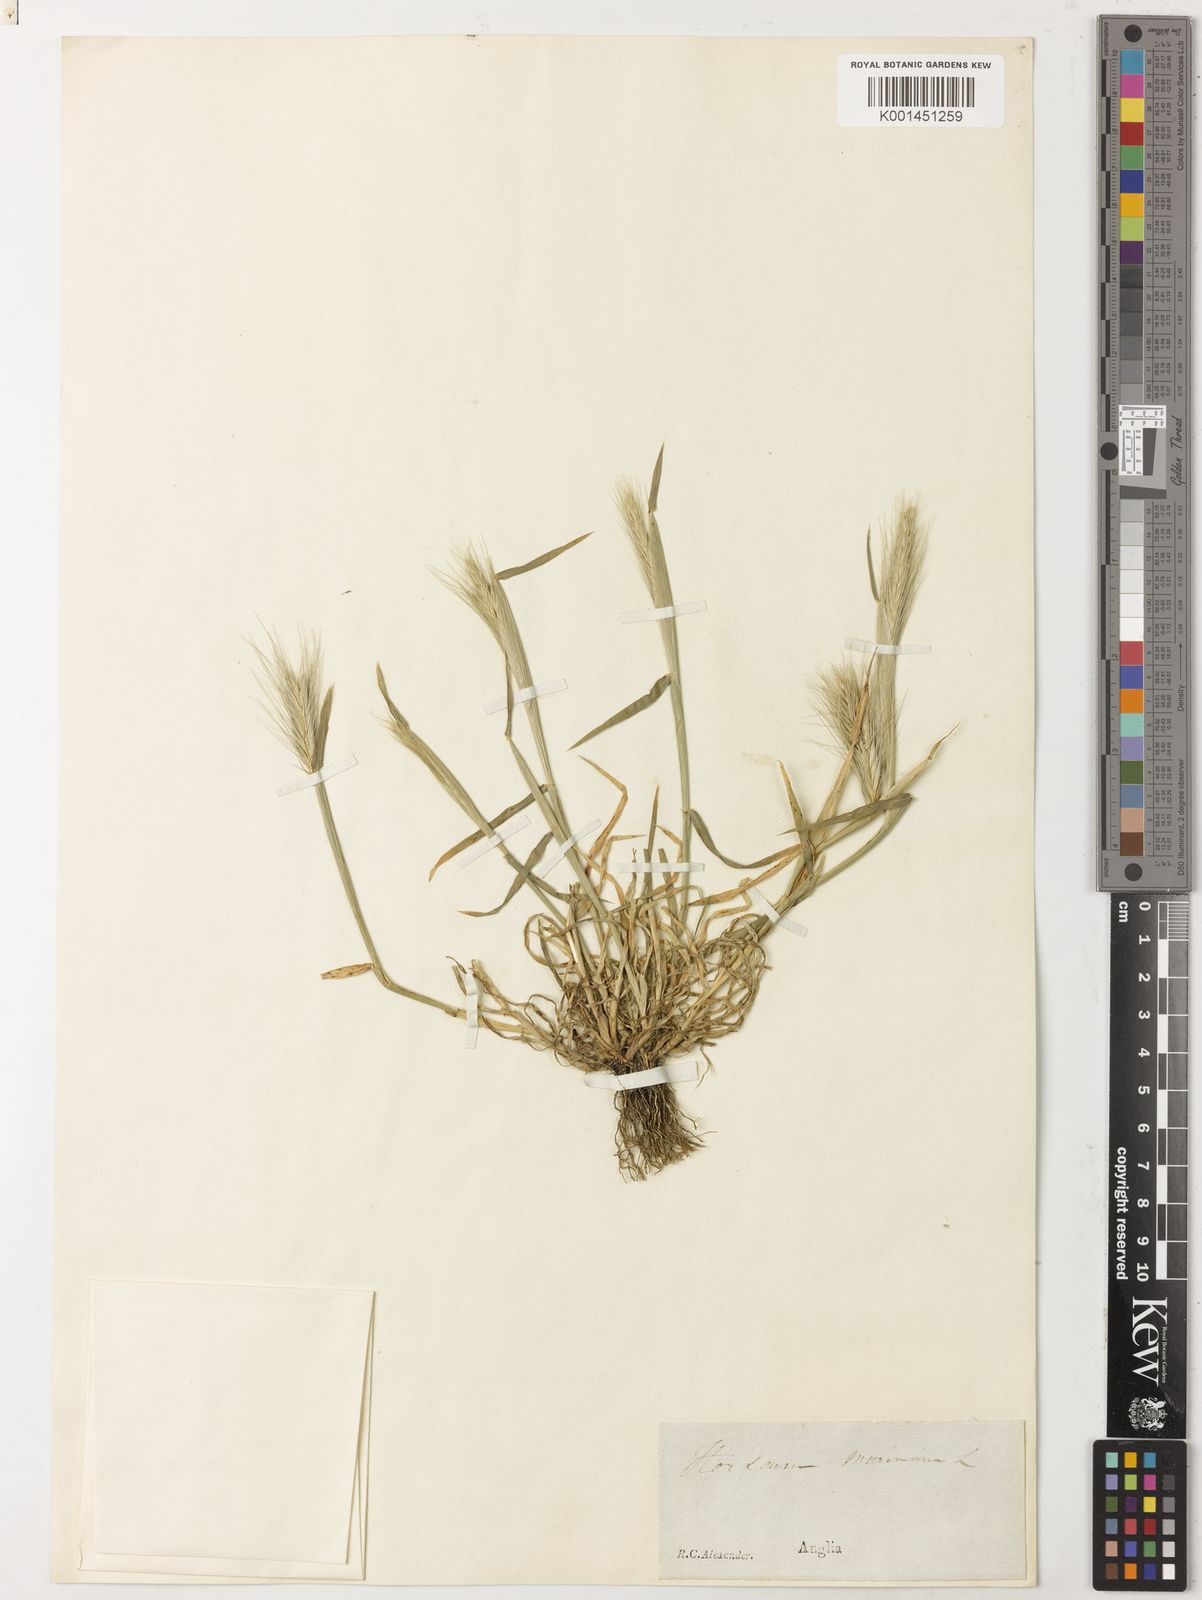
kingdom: Plantae
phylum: Tracheophyta
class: Liliopsida
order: Poales
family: Poaceae
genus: Hordeum
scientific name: Hordeum murinum
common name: Wall barley
